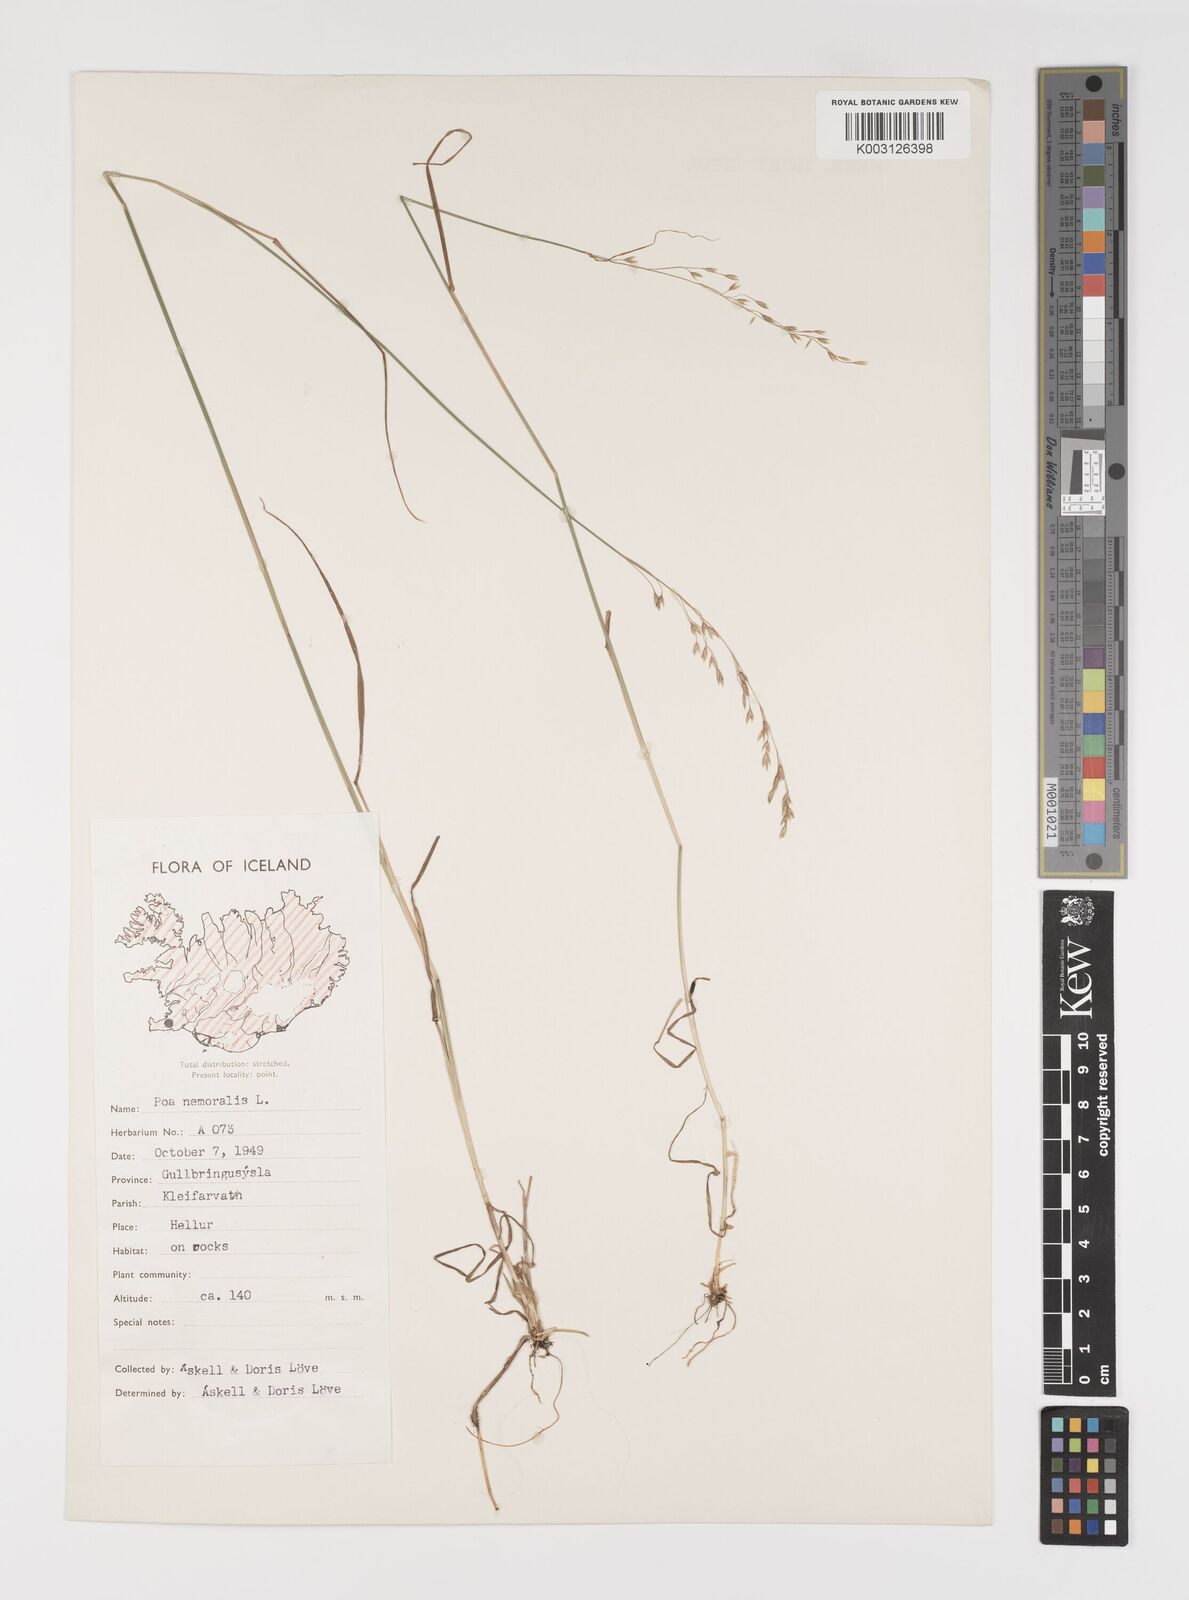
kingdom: Plantae
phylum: Tracheophyta
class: Liliopsida
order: Poales
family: Poaceae
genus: Poa
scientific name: Poa nemoralis
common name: Wood bluegrass
